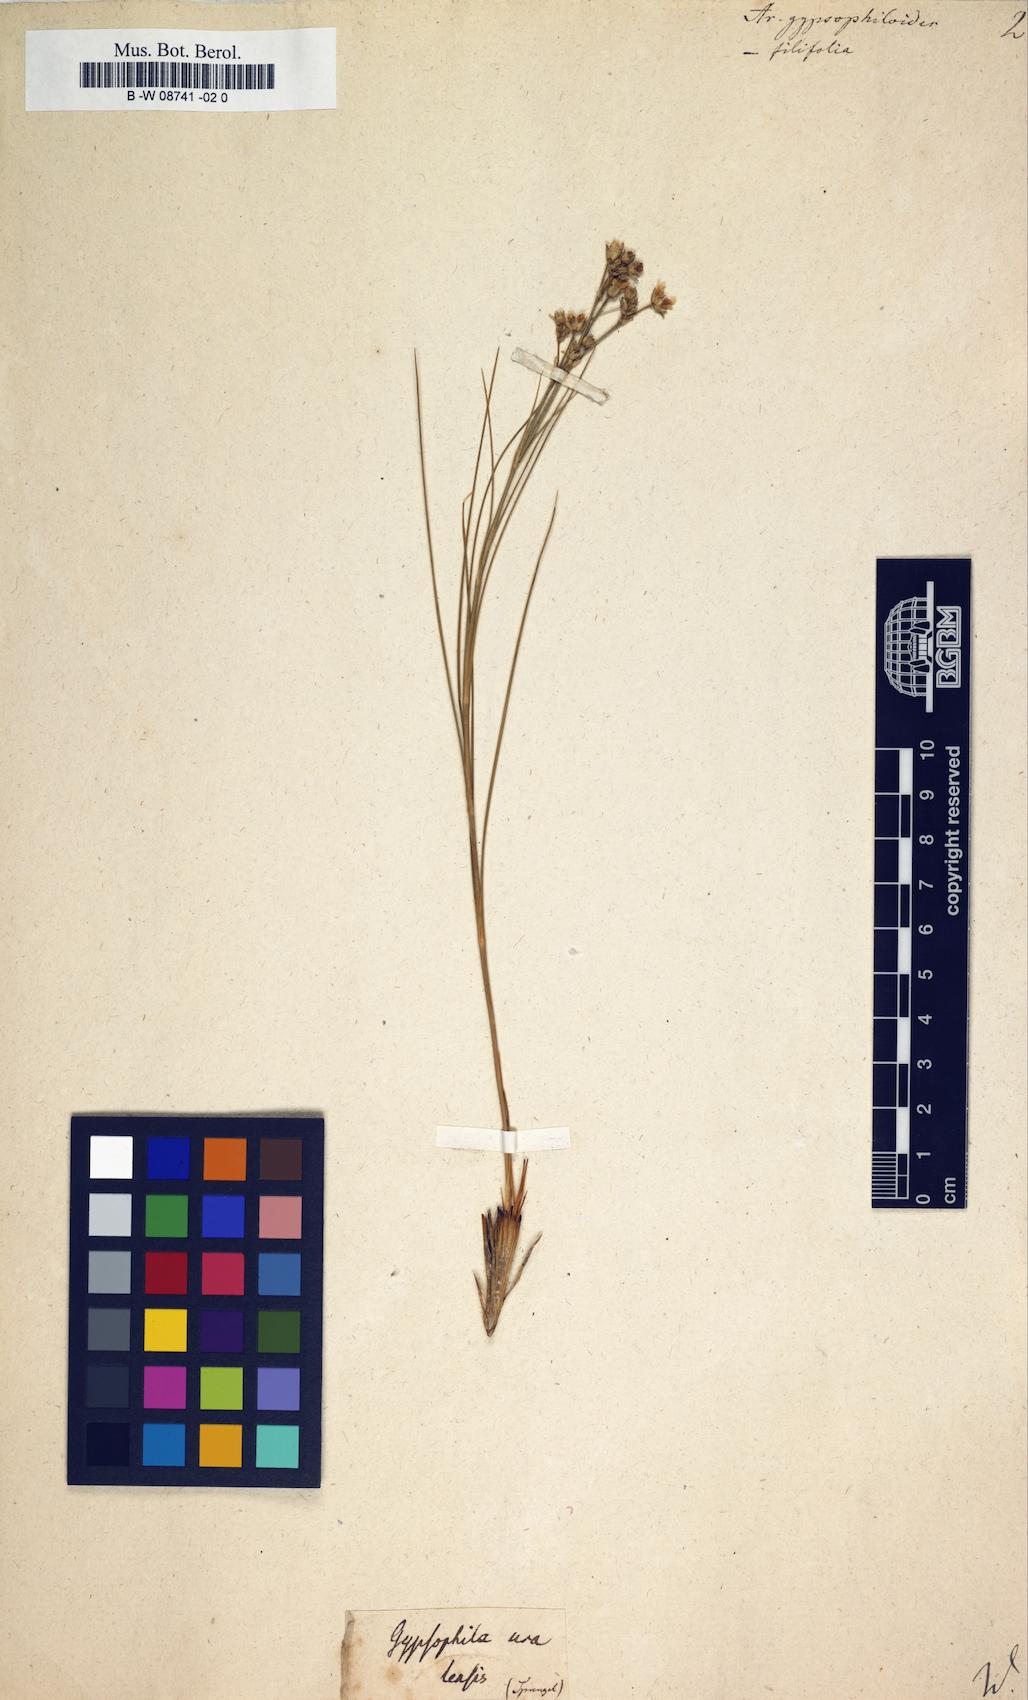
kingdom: Plantae
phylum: Tracheophyta
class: Magnoliopsida
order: Caryophyllales
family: Caryophyllaceae
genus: Eremogone
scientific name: Eremogone
